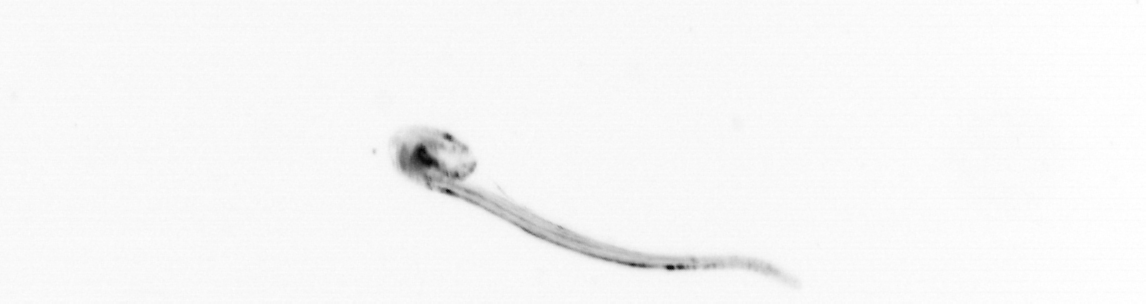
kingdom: Animalia
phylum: Chordata
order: Copelata
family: Fritillariidae
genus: Appendicularia
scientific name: Appendicularia
